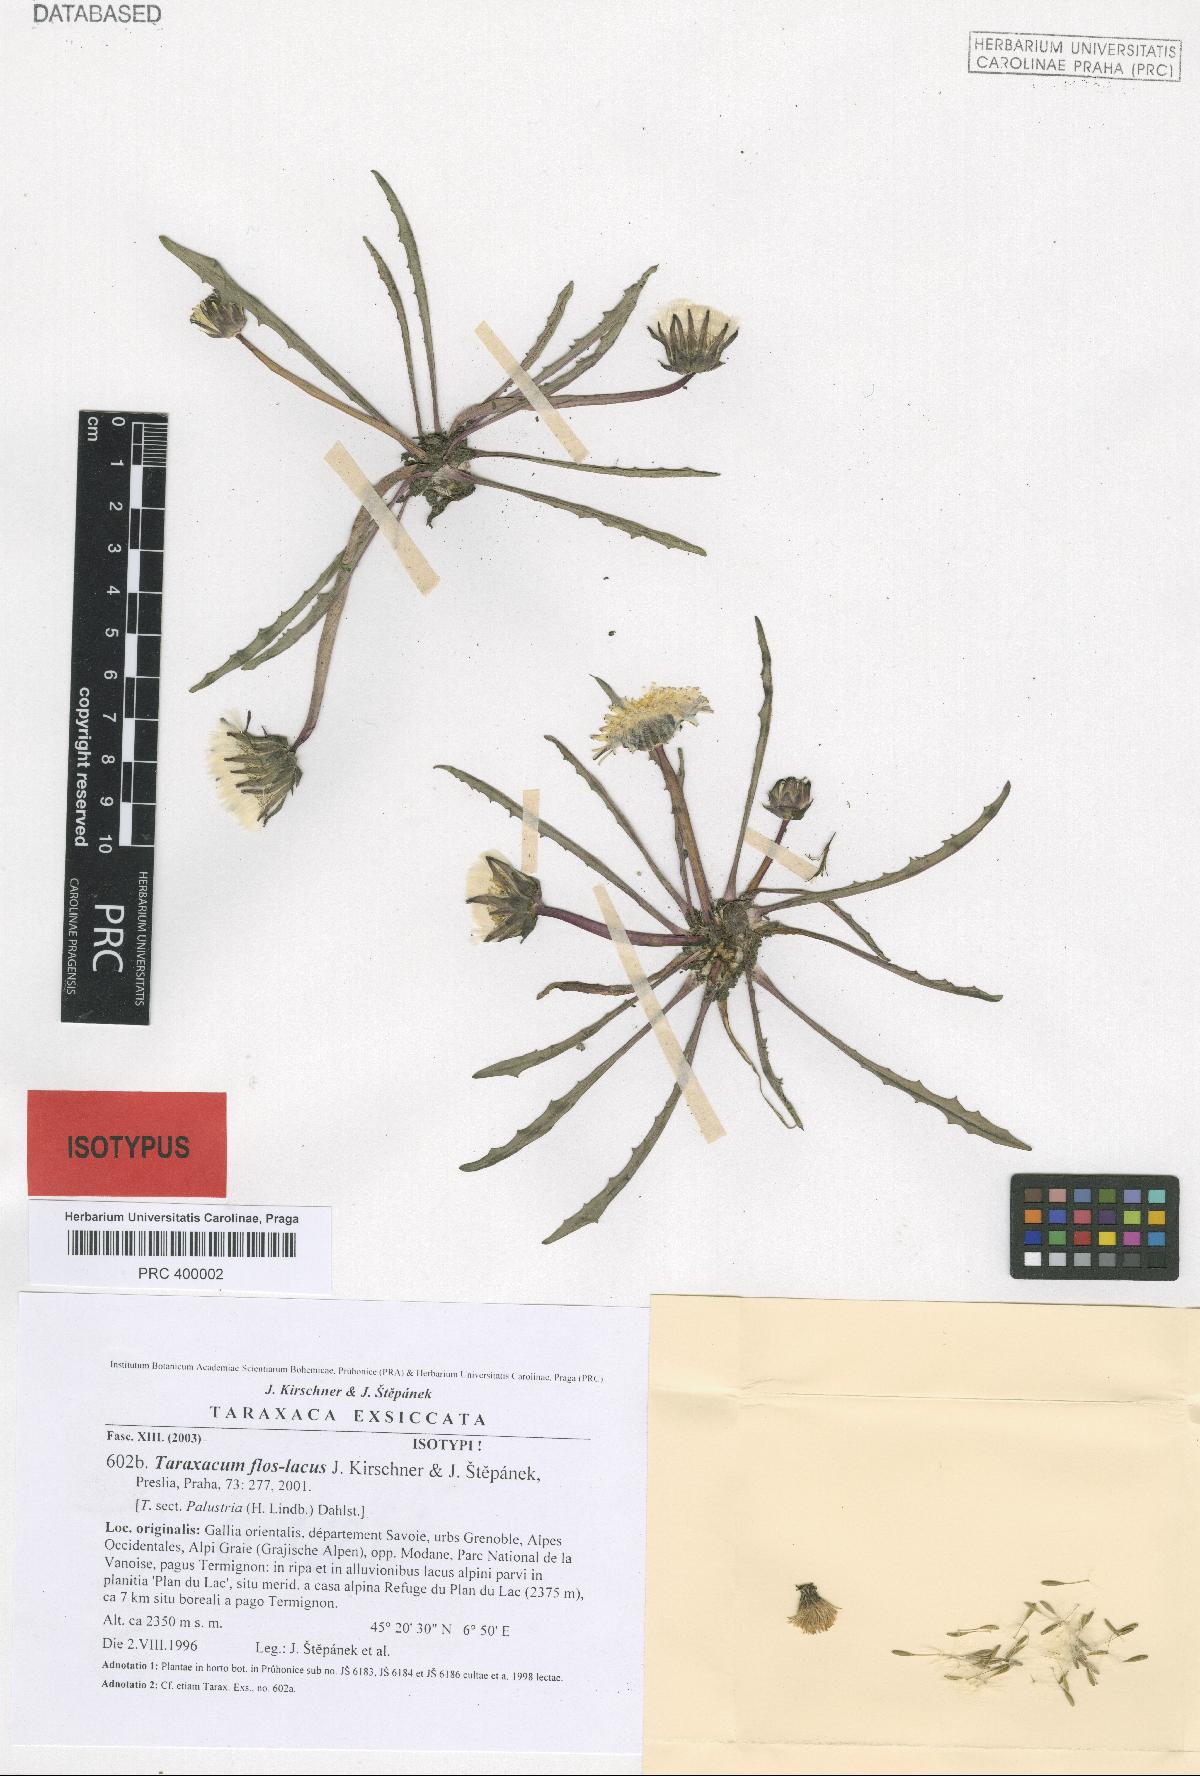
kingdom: Plantae
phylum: Tracheophyta
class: Magnoliopsida
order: Asterales
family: Asteraceae
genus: Taraxacum
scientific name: Taraxacum flos-lacus
